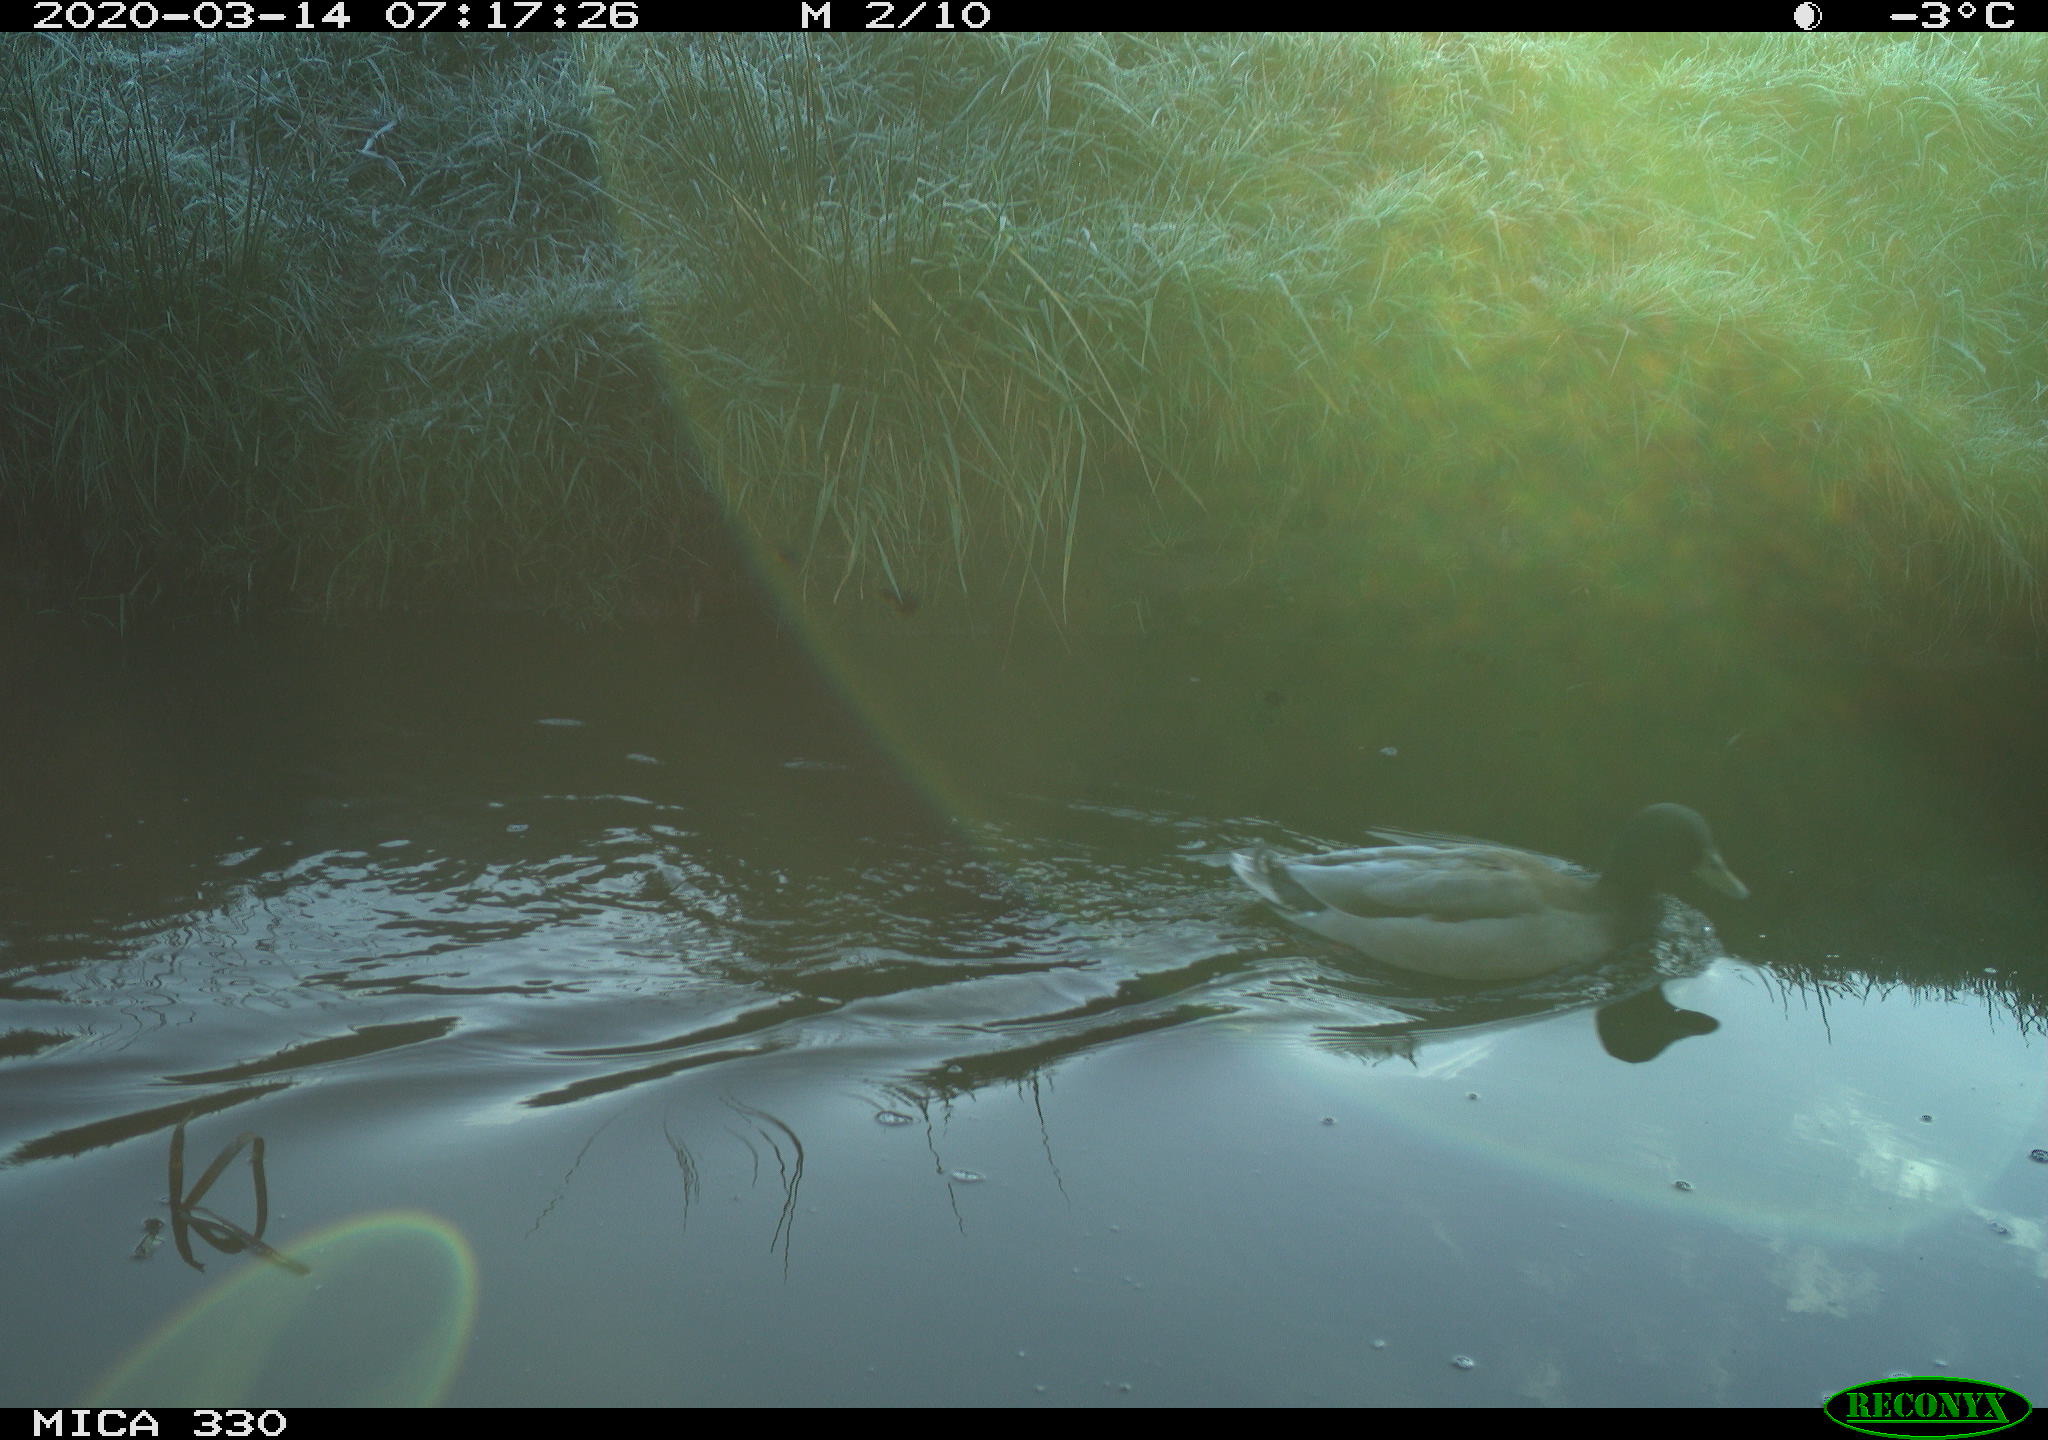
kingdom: Animalia
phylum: Chordata
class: Aves
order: Anseriformes
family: Anatidae
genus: Anas
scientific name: Anas platyrhynchos
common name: Mallard
